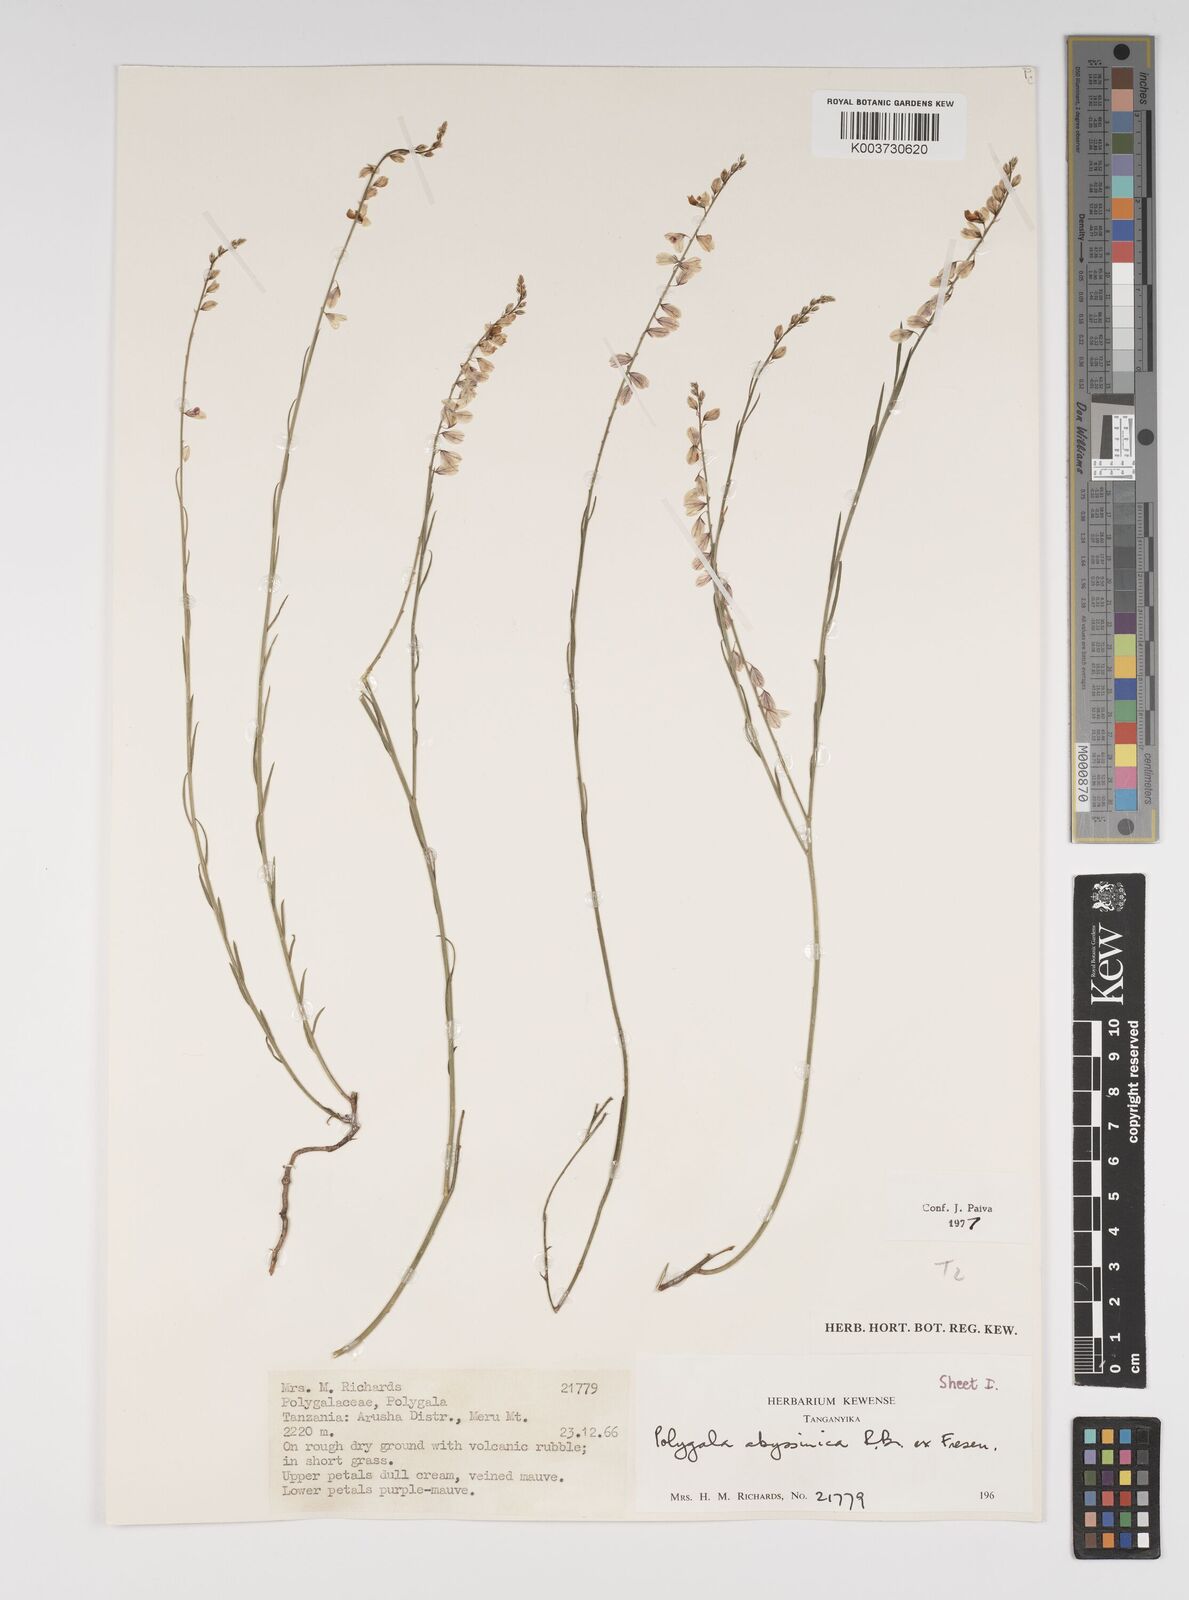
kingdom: Plantae
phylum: Tracheophyta
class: Magnoliopsida
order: Fabales
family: Polygalaceae
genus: Polygala
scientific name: Polygala abyssinica
